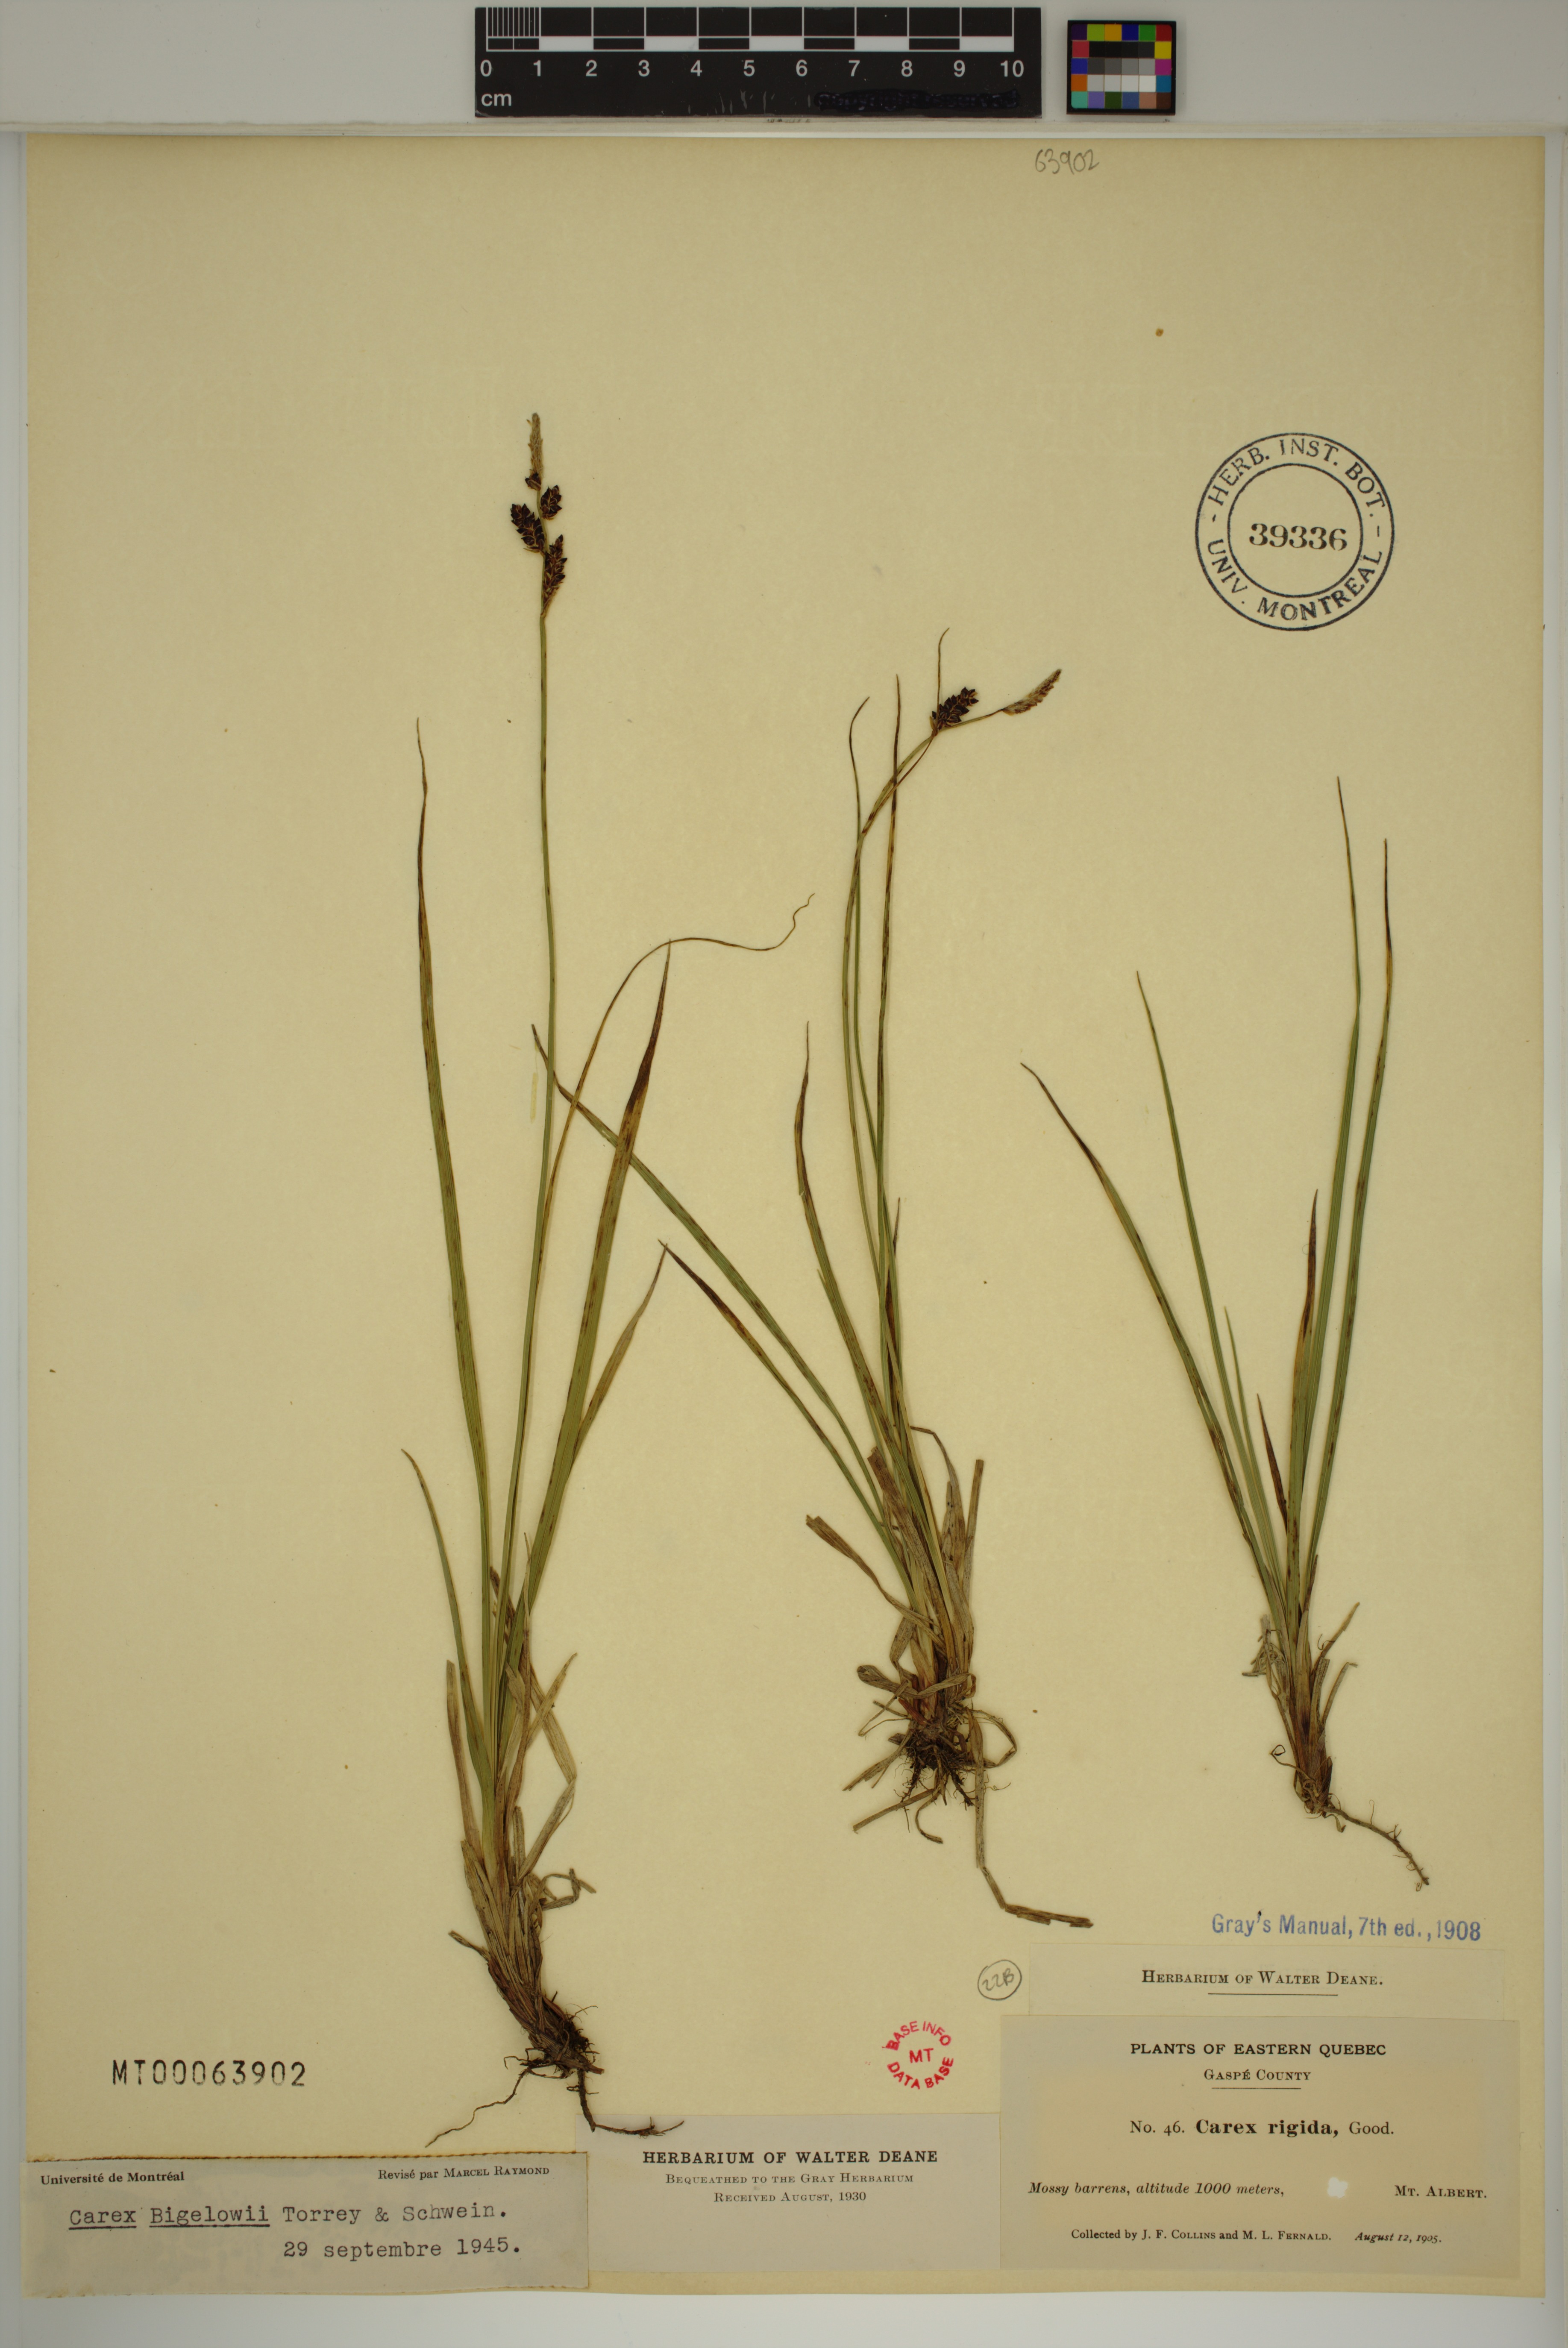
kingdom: Plantae
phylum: Tracheophyta
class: Liliopsida
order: Poales
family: Cyperaceae
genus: Carex
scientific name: Carex bigelowii
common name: Stiff sedge
